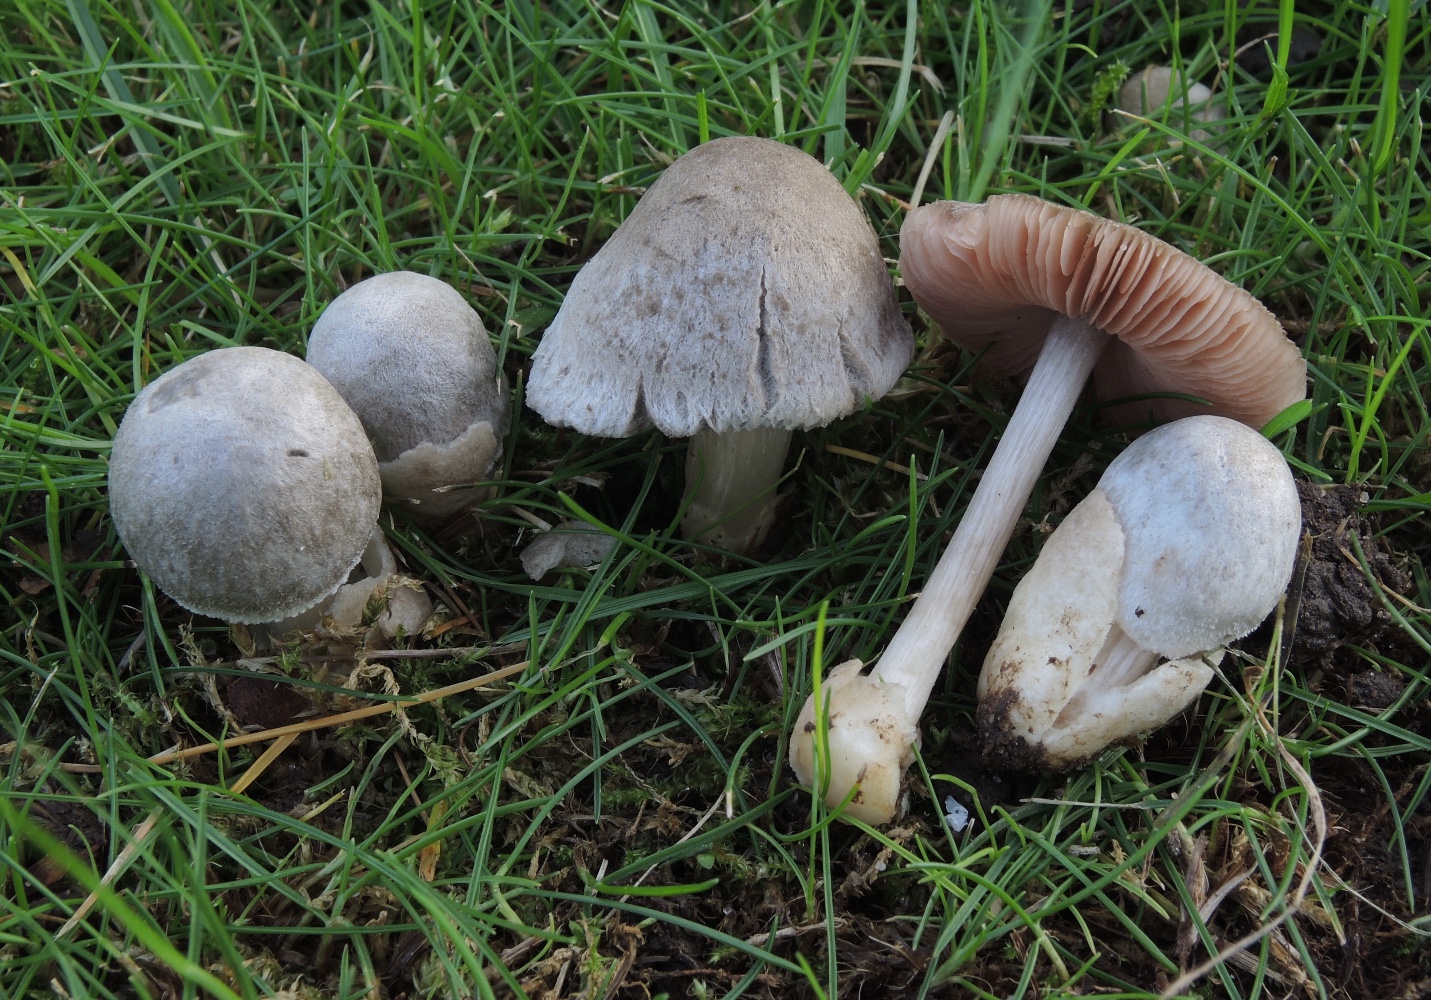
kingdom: Fungi
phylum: Basidiomycota
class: Agaricomycetes
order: Agaricales
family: Pluteaceae
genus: Volvariella
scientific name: Volvariella murinella
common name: musegrå posesvamp
